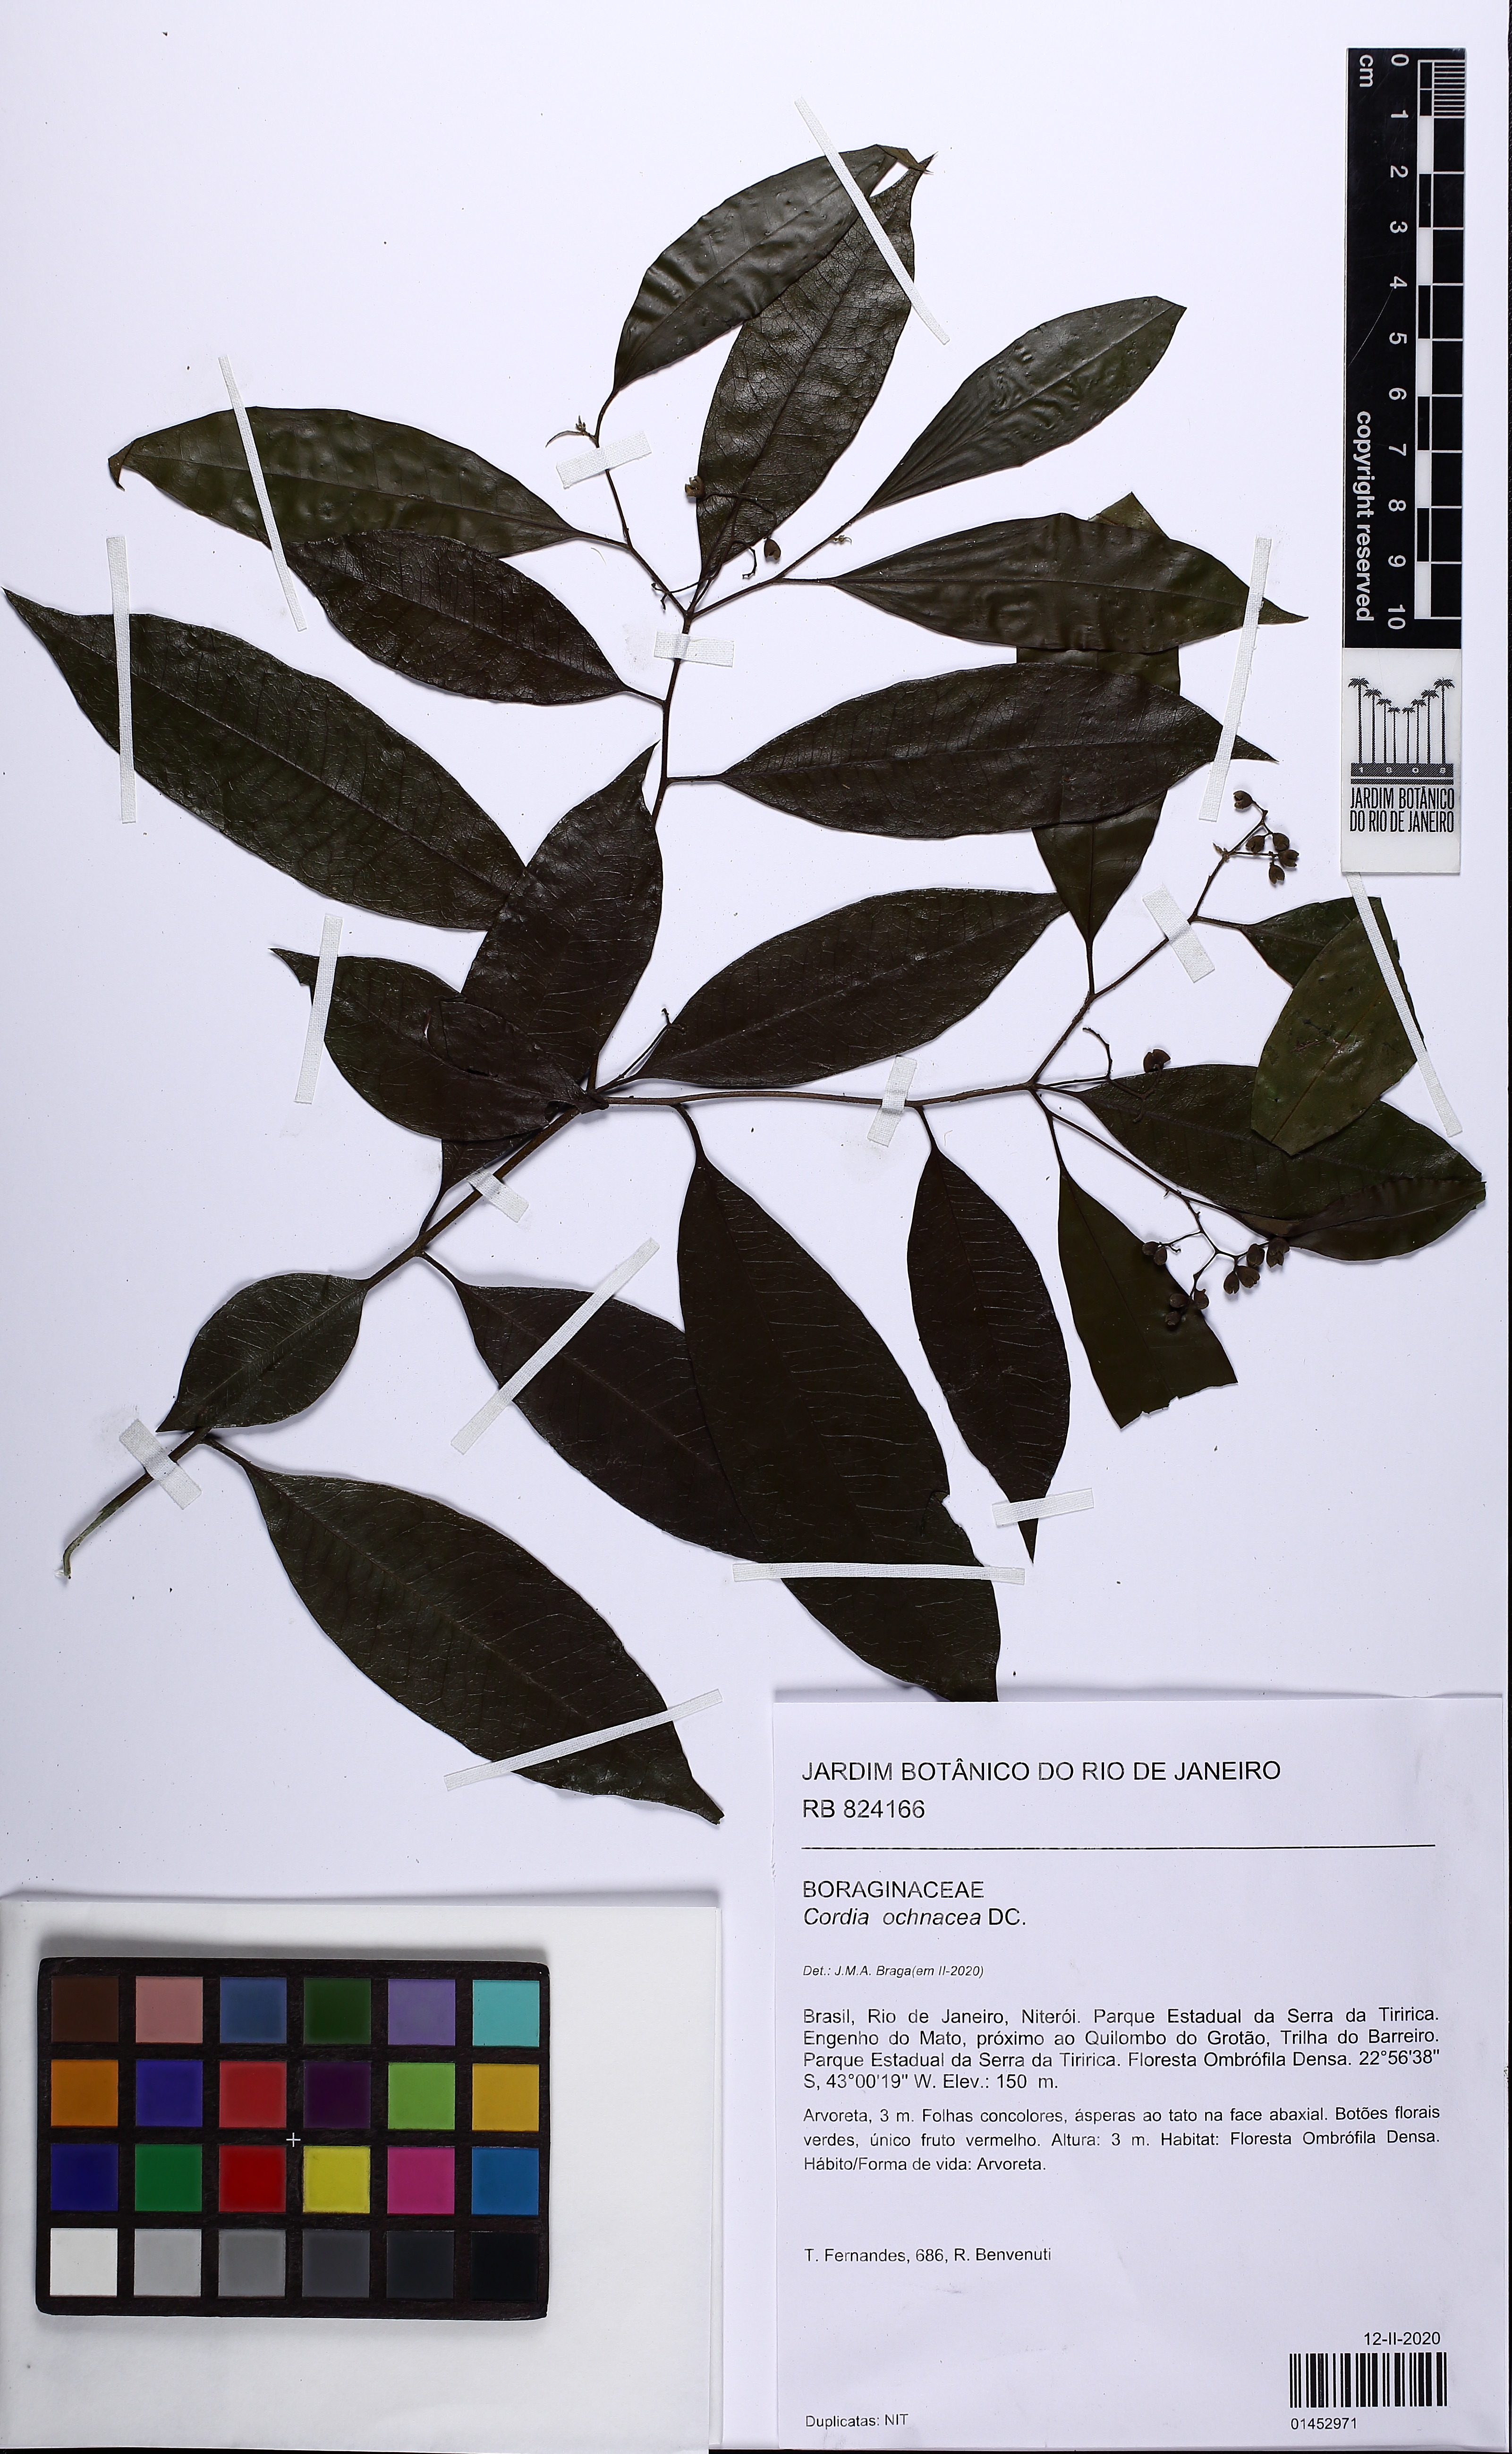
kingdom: Plantae
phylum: Tracheophyta
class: Magnoliopsida
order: Boraginales
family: Cordiaceae
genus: Cordia
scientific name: Cordia ochnacea
